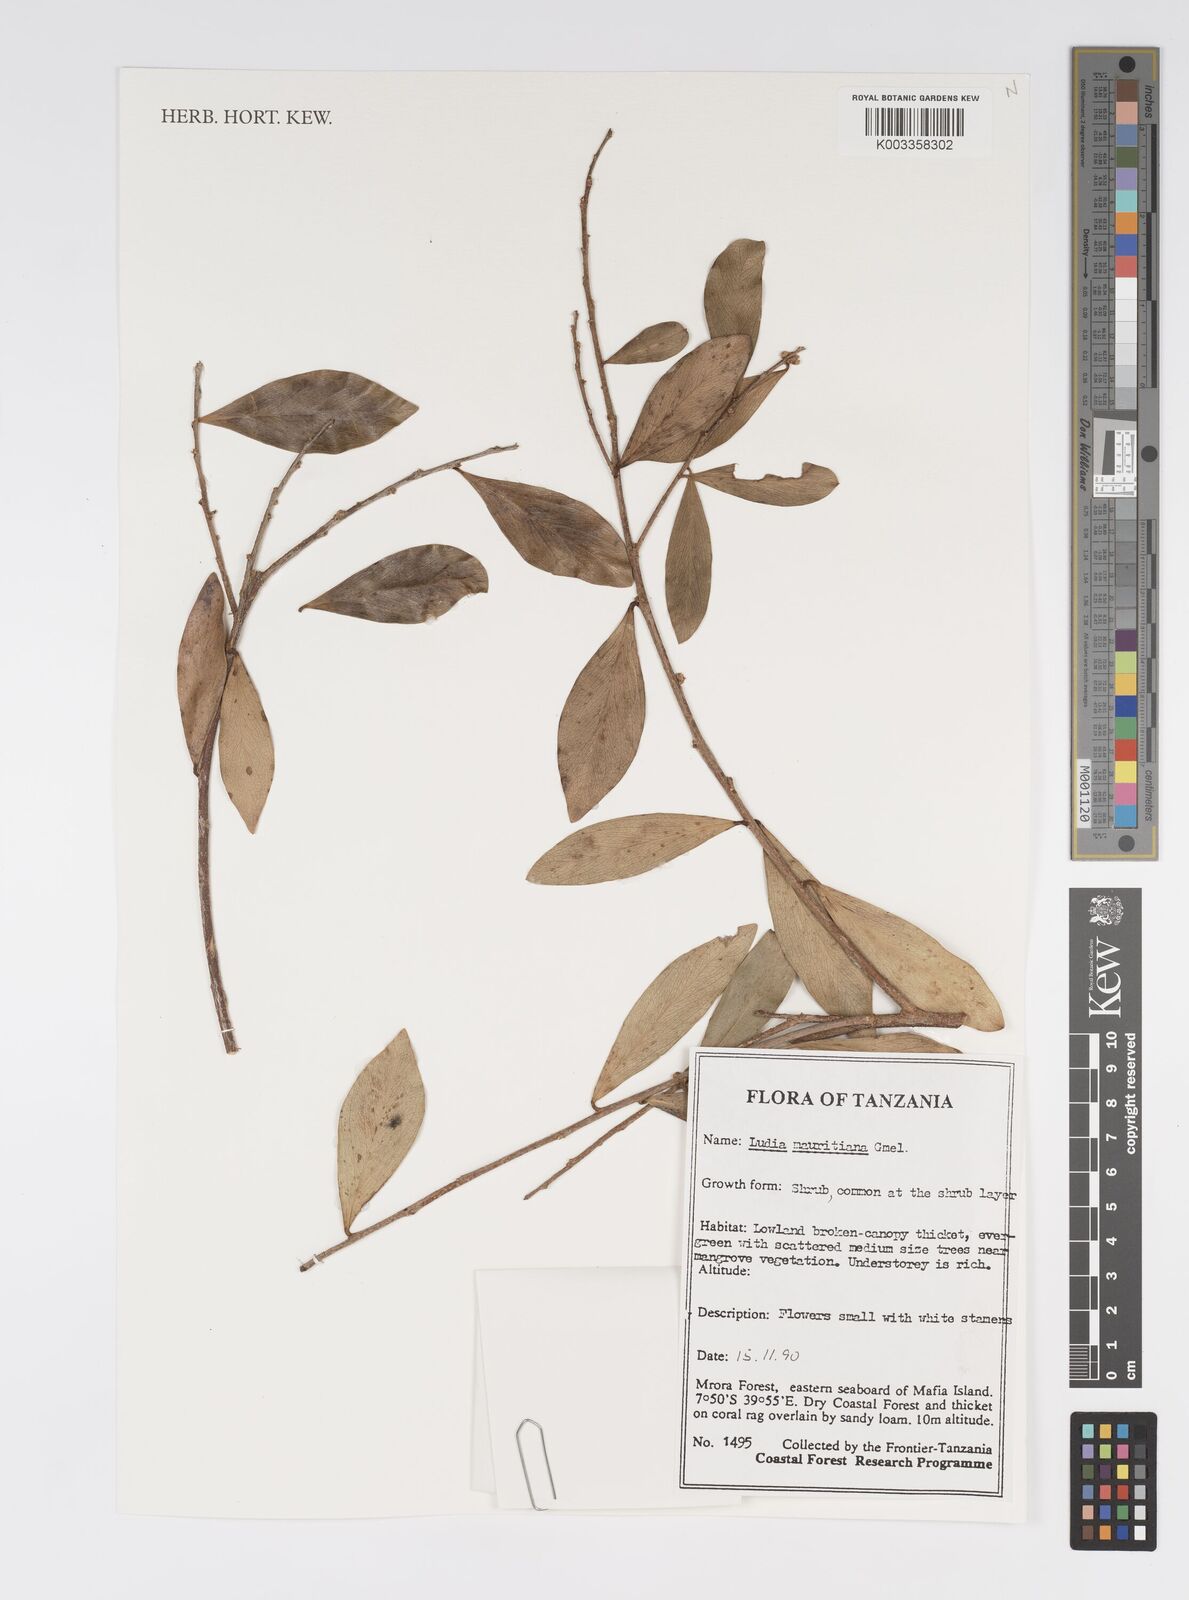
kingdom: Plantae
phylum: Tracheophyta
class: Magnoliopsida
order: Malpighiales
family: Salicaceae
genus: Ludia
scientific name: Ludia mauritiana
